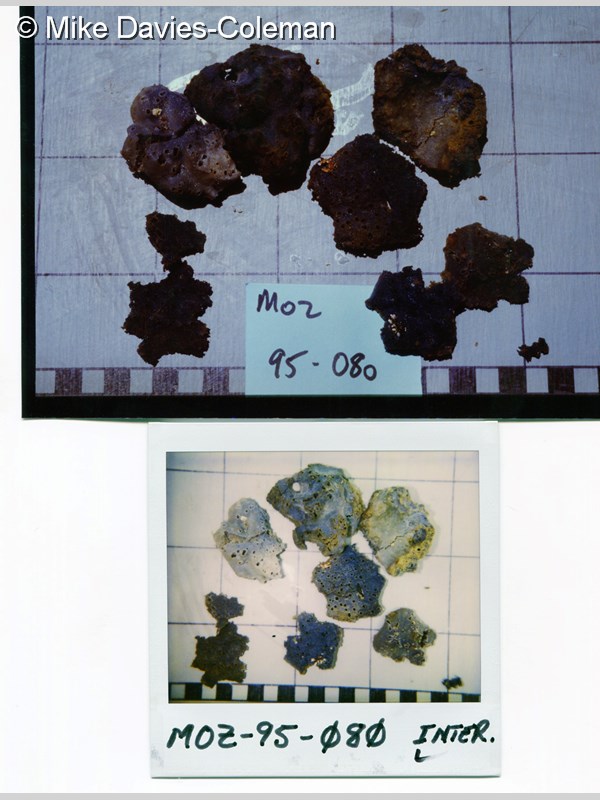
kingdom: Animalia
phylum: Porifera
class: Demospongiae
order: Haplosclerida
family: Chalinidae
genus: Haliclona
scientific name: Haliclona
